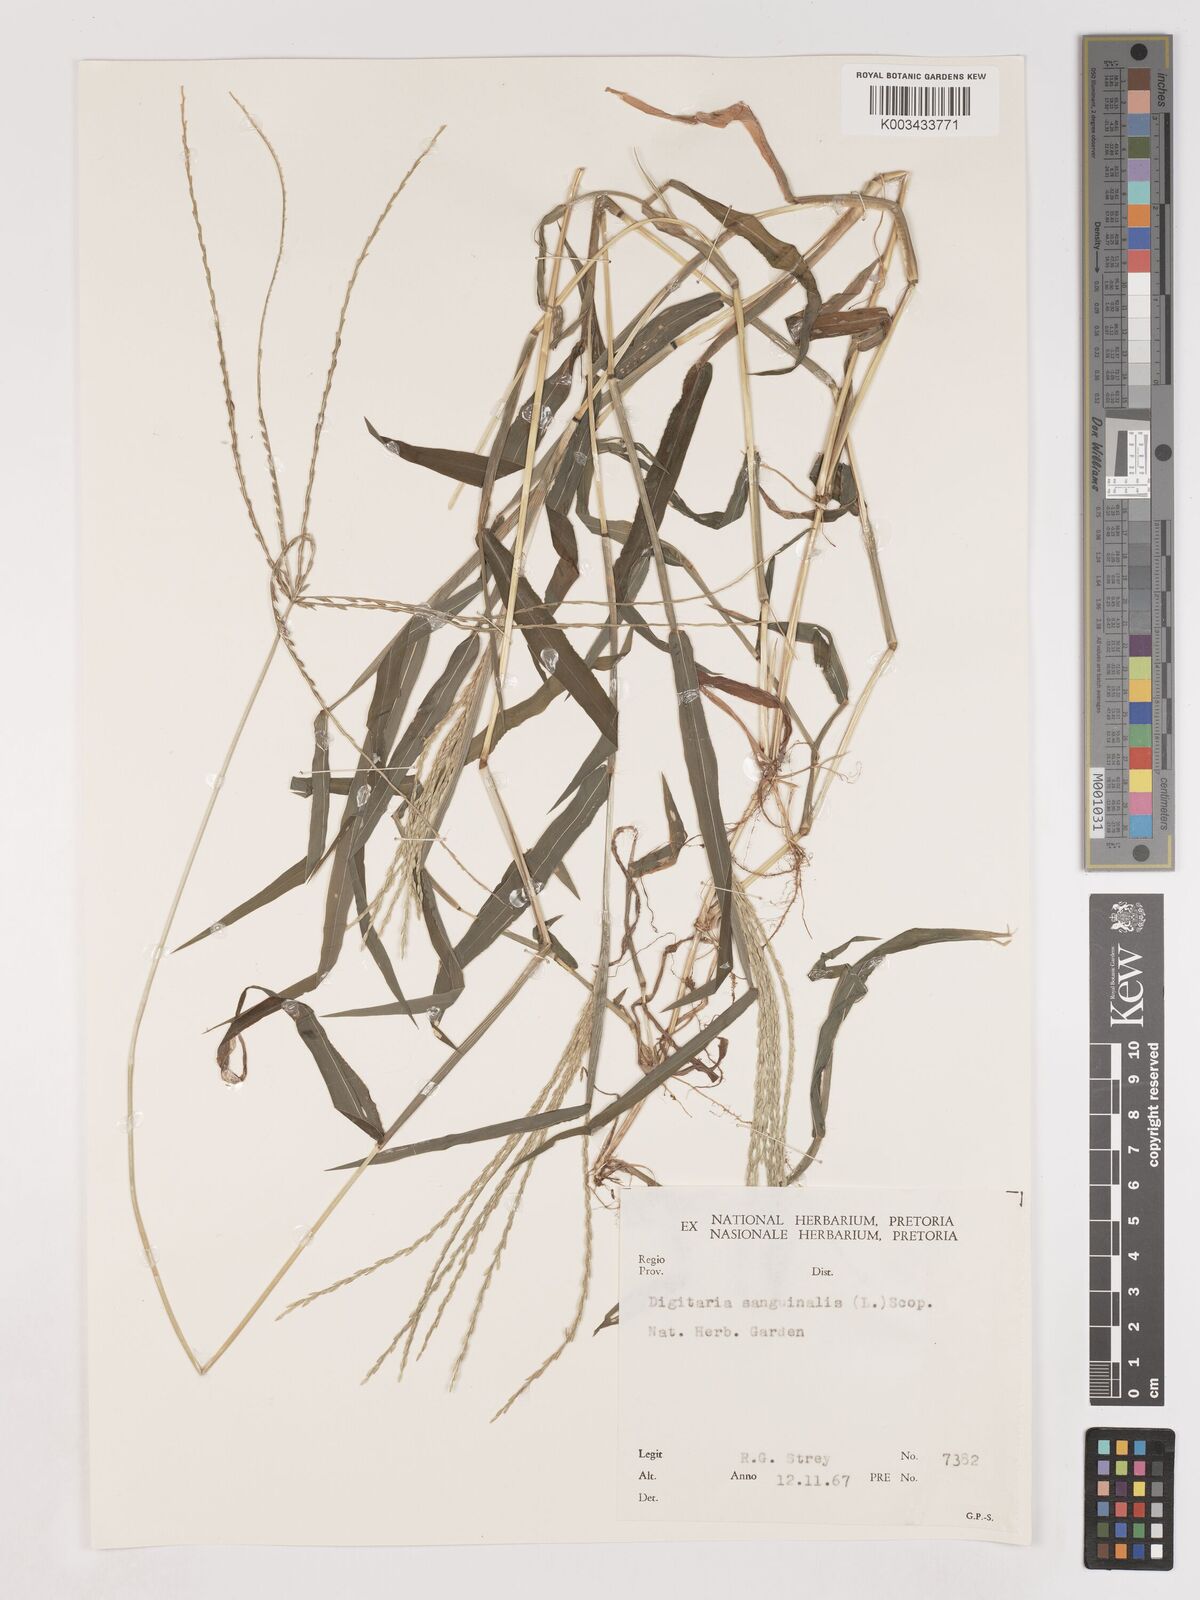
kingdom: Plantae
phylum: Tracheophyta
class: Liliopsida
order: Poales
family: Poaceae
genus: Digitaria
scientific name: Digitaria ciliaris
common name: Tropical finger-grass
